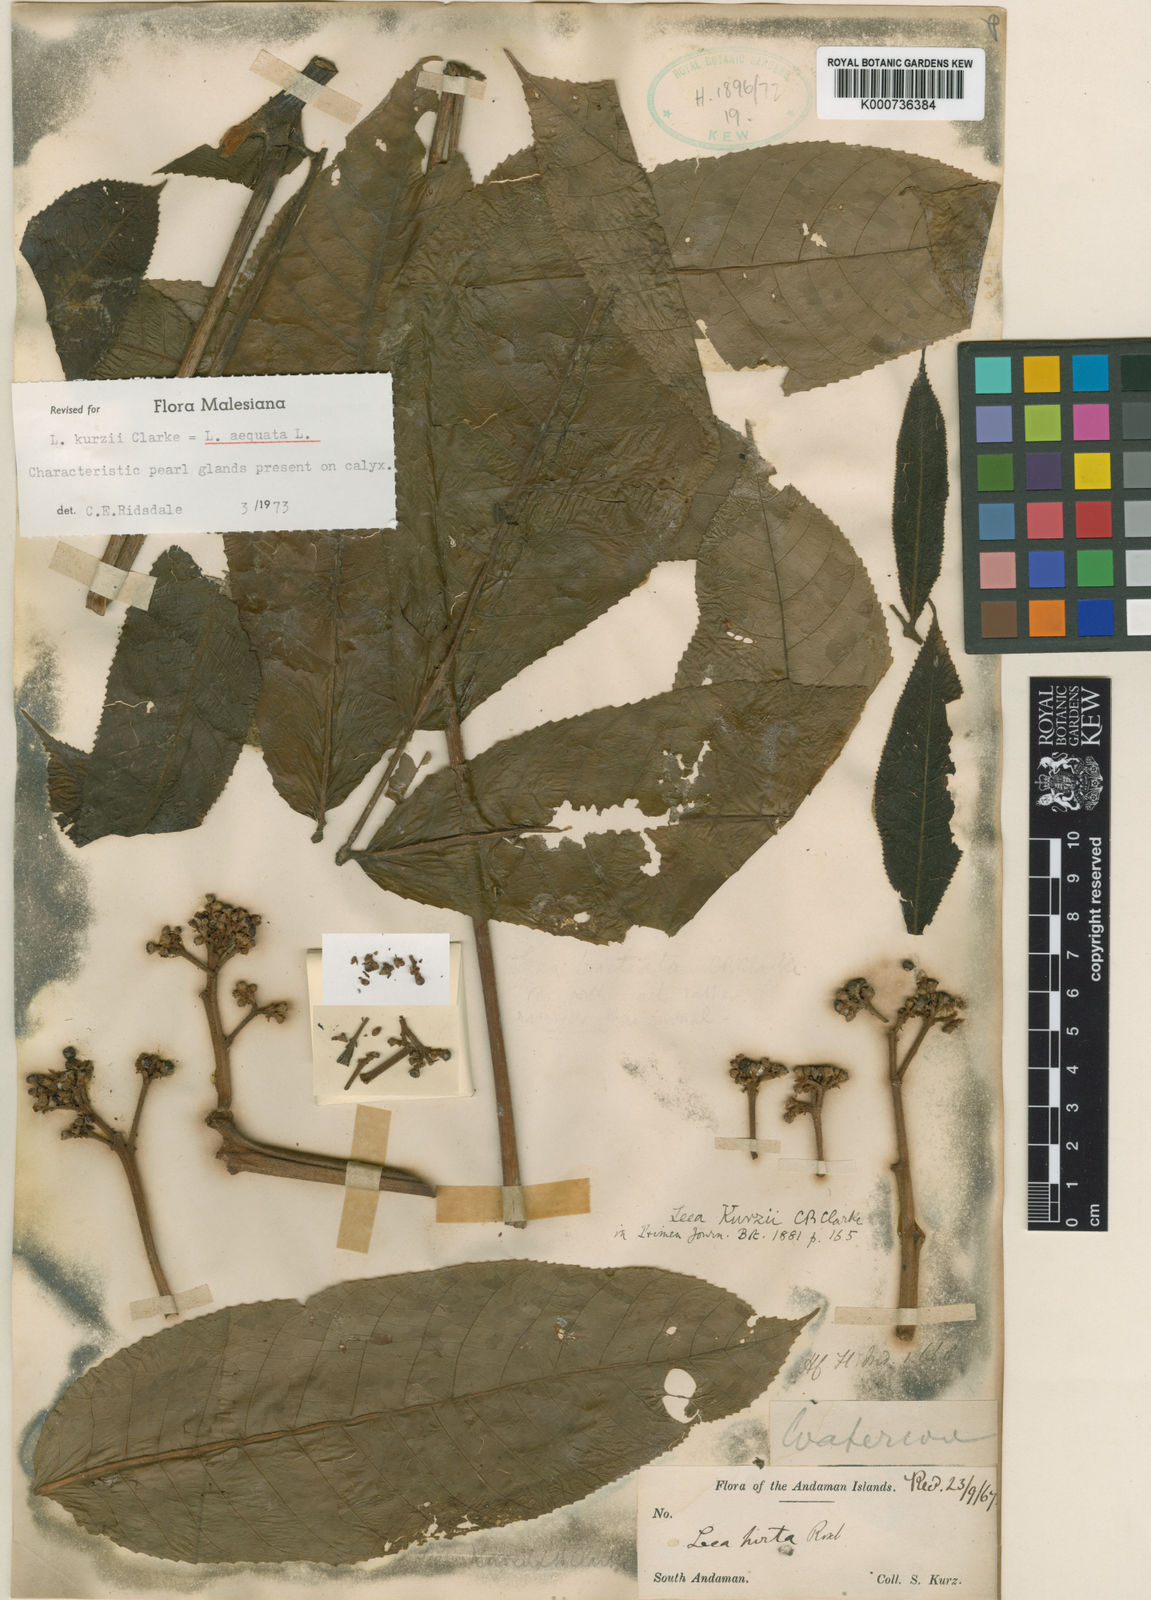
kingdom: Plantae
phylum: Tracheophyta
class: Magnoliopsida
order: Vitales
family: Vitaceae
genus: Leea
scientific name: Leea aequata
